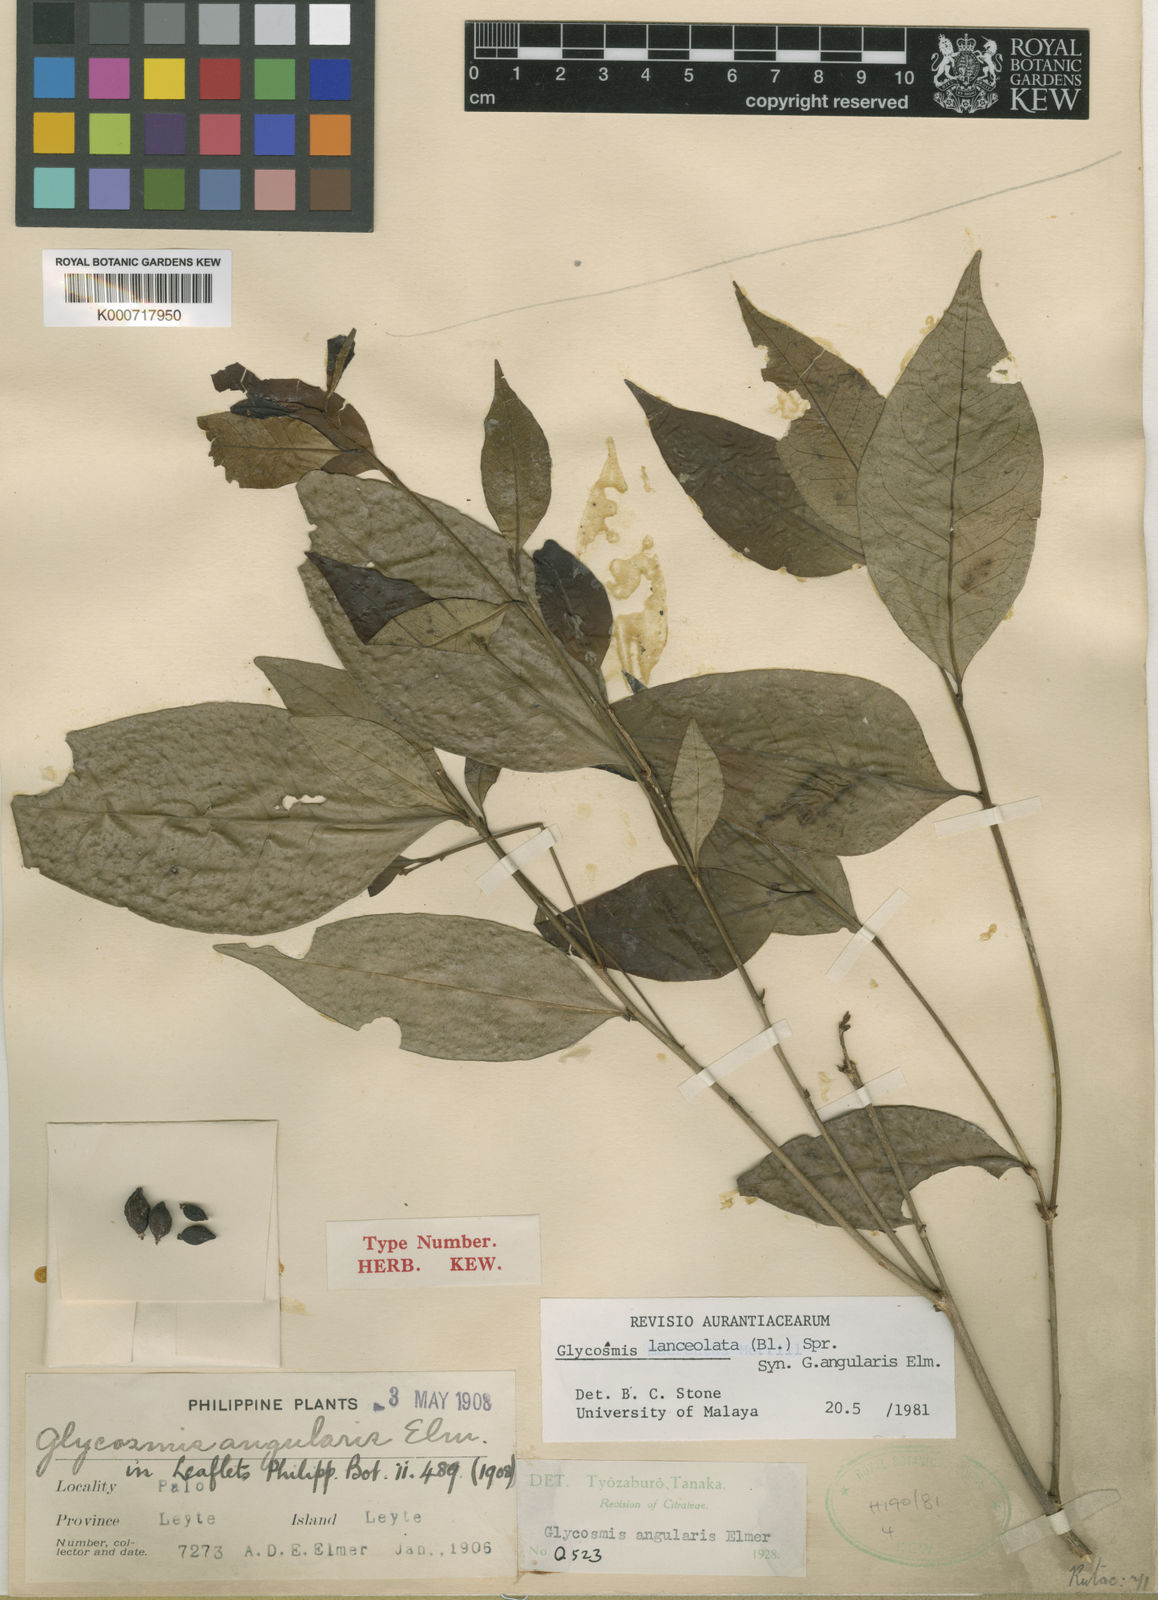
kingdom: Plantae
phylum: Tracheophyta
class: Magnoliopsida
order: Sapindales
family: Rutaceae
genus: Glycosmis
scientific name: Glycosmis
